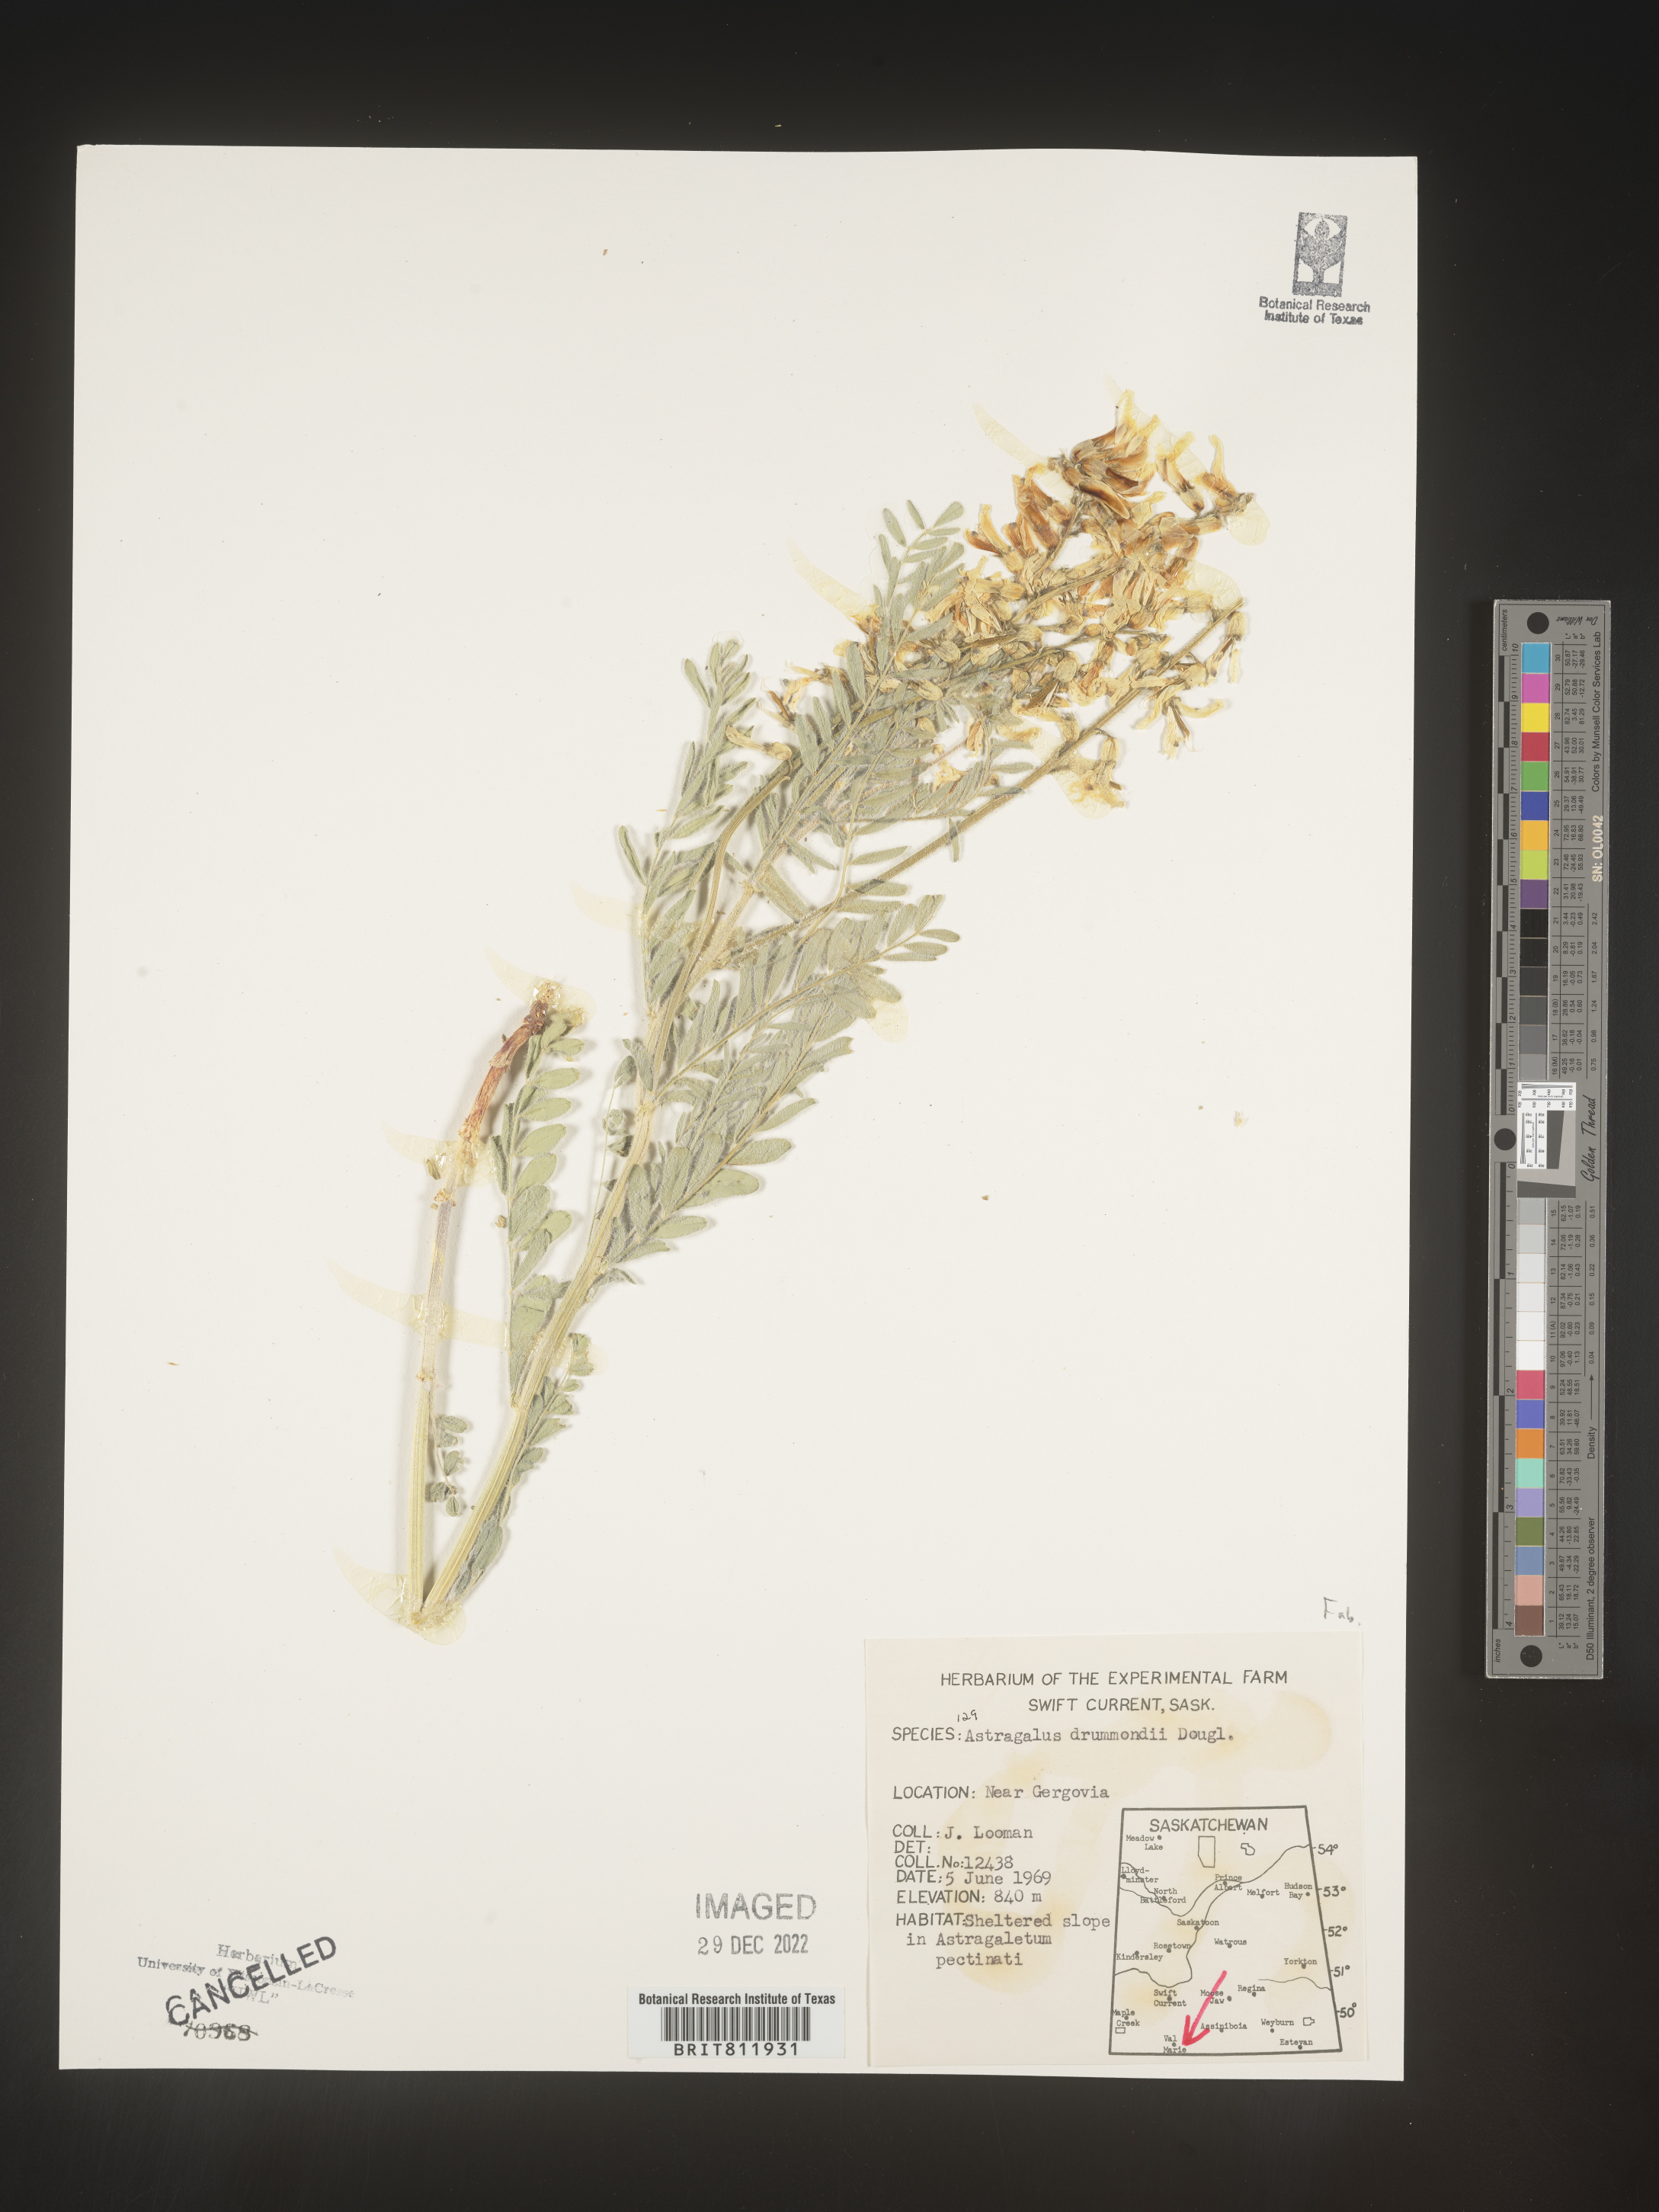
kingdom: Plantae
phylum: Tracheophyta
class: Magnoliopsida
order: Fabales
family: Fabaceae
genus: Astragalus
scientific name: Astragalus drummondii
